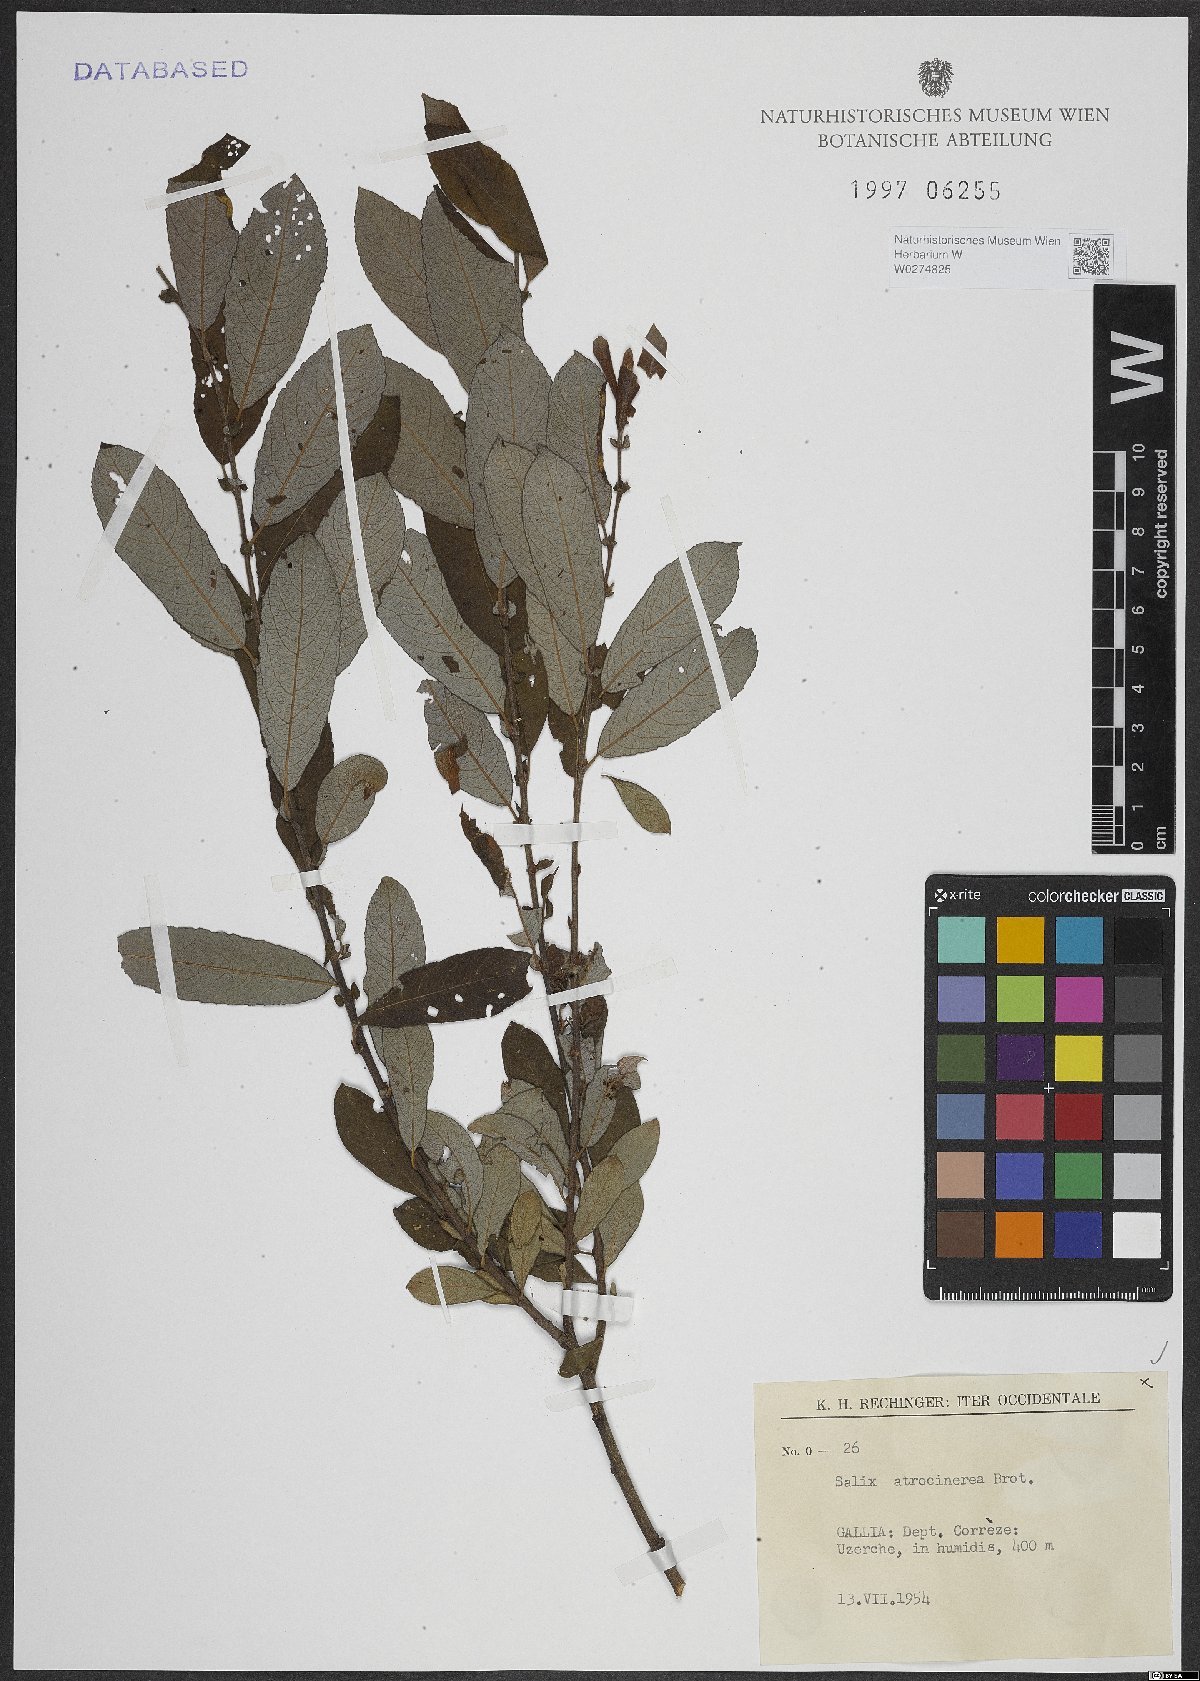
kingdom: Plantae
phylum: Tracheophyta
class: Magnoliopsida
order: Malpighiales
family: Salicaceae
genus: Salix
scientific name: Salix atrocinerea
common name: Rusty willow
